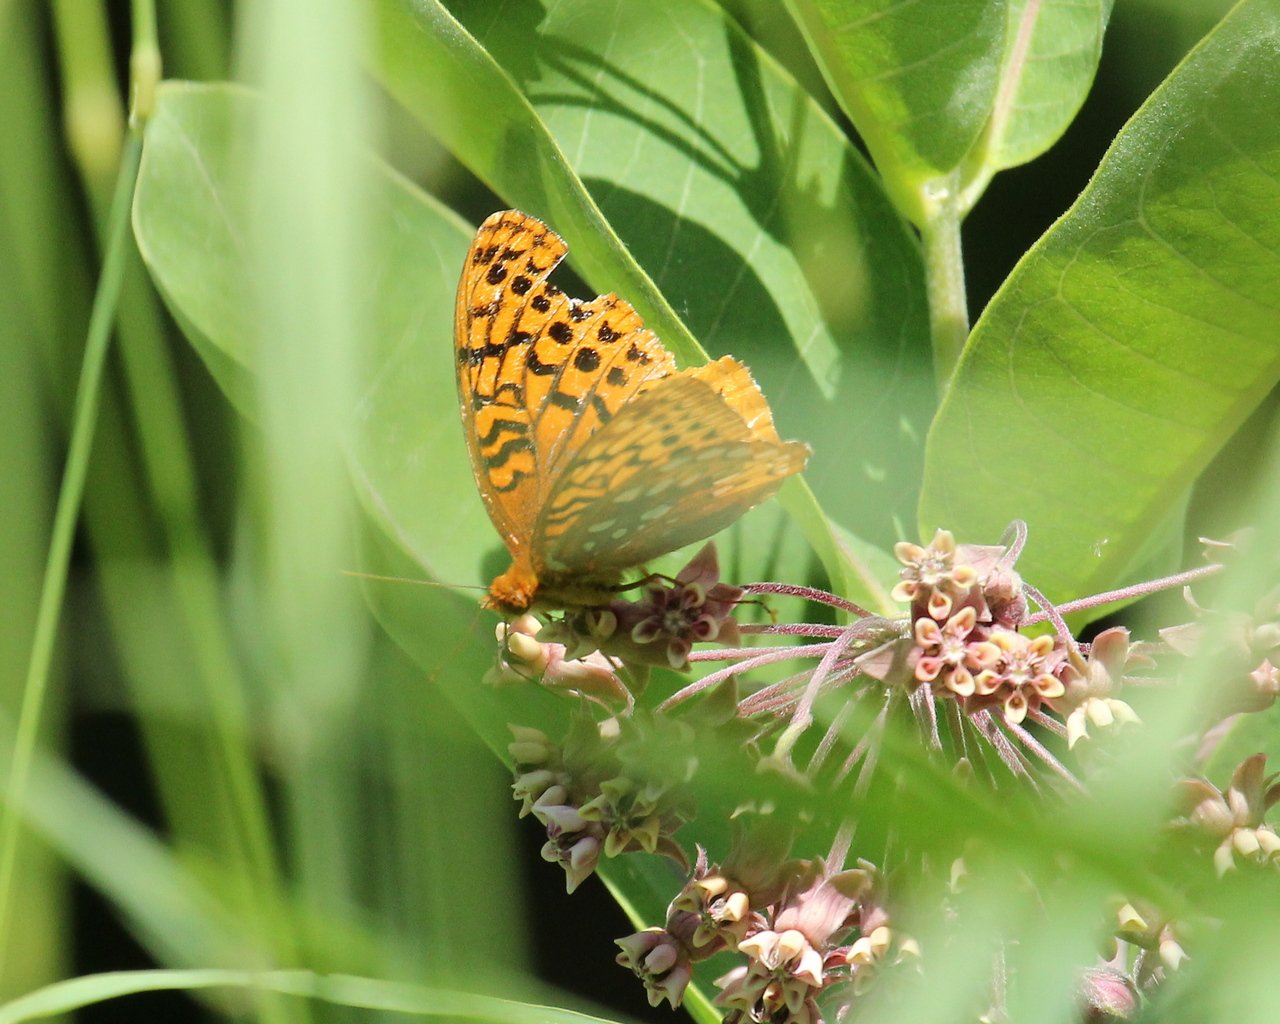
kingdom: Animalia
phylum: Arthropoda
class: Insecta
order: Lepidoptera
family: Nymphalidae
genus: Speyeria
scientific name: Speyeria cybele
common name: Great Spangled Fritillary
